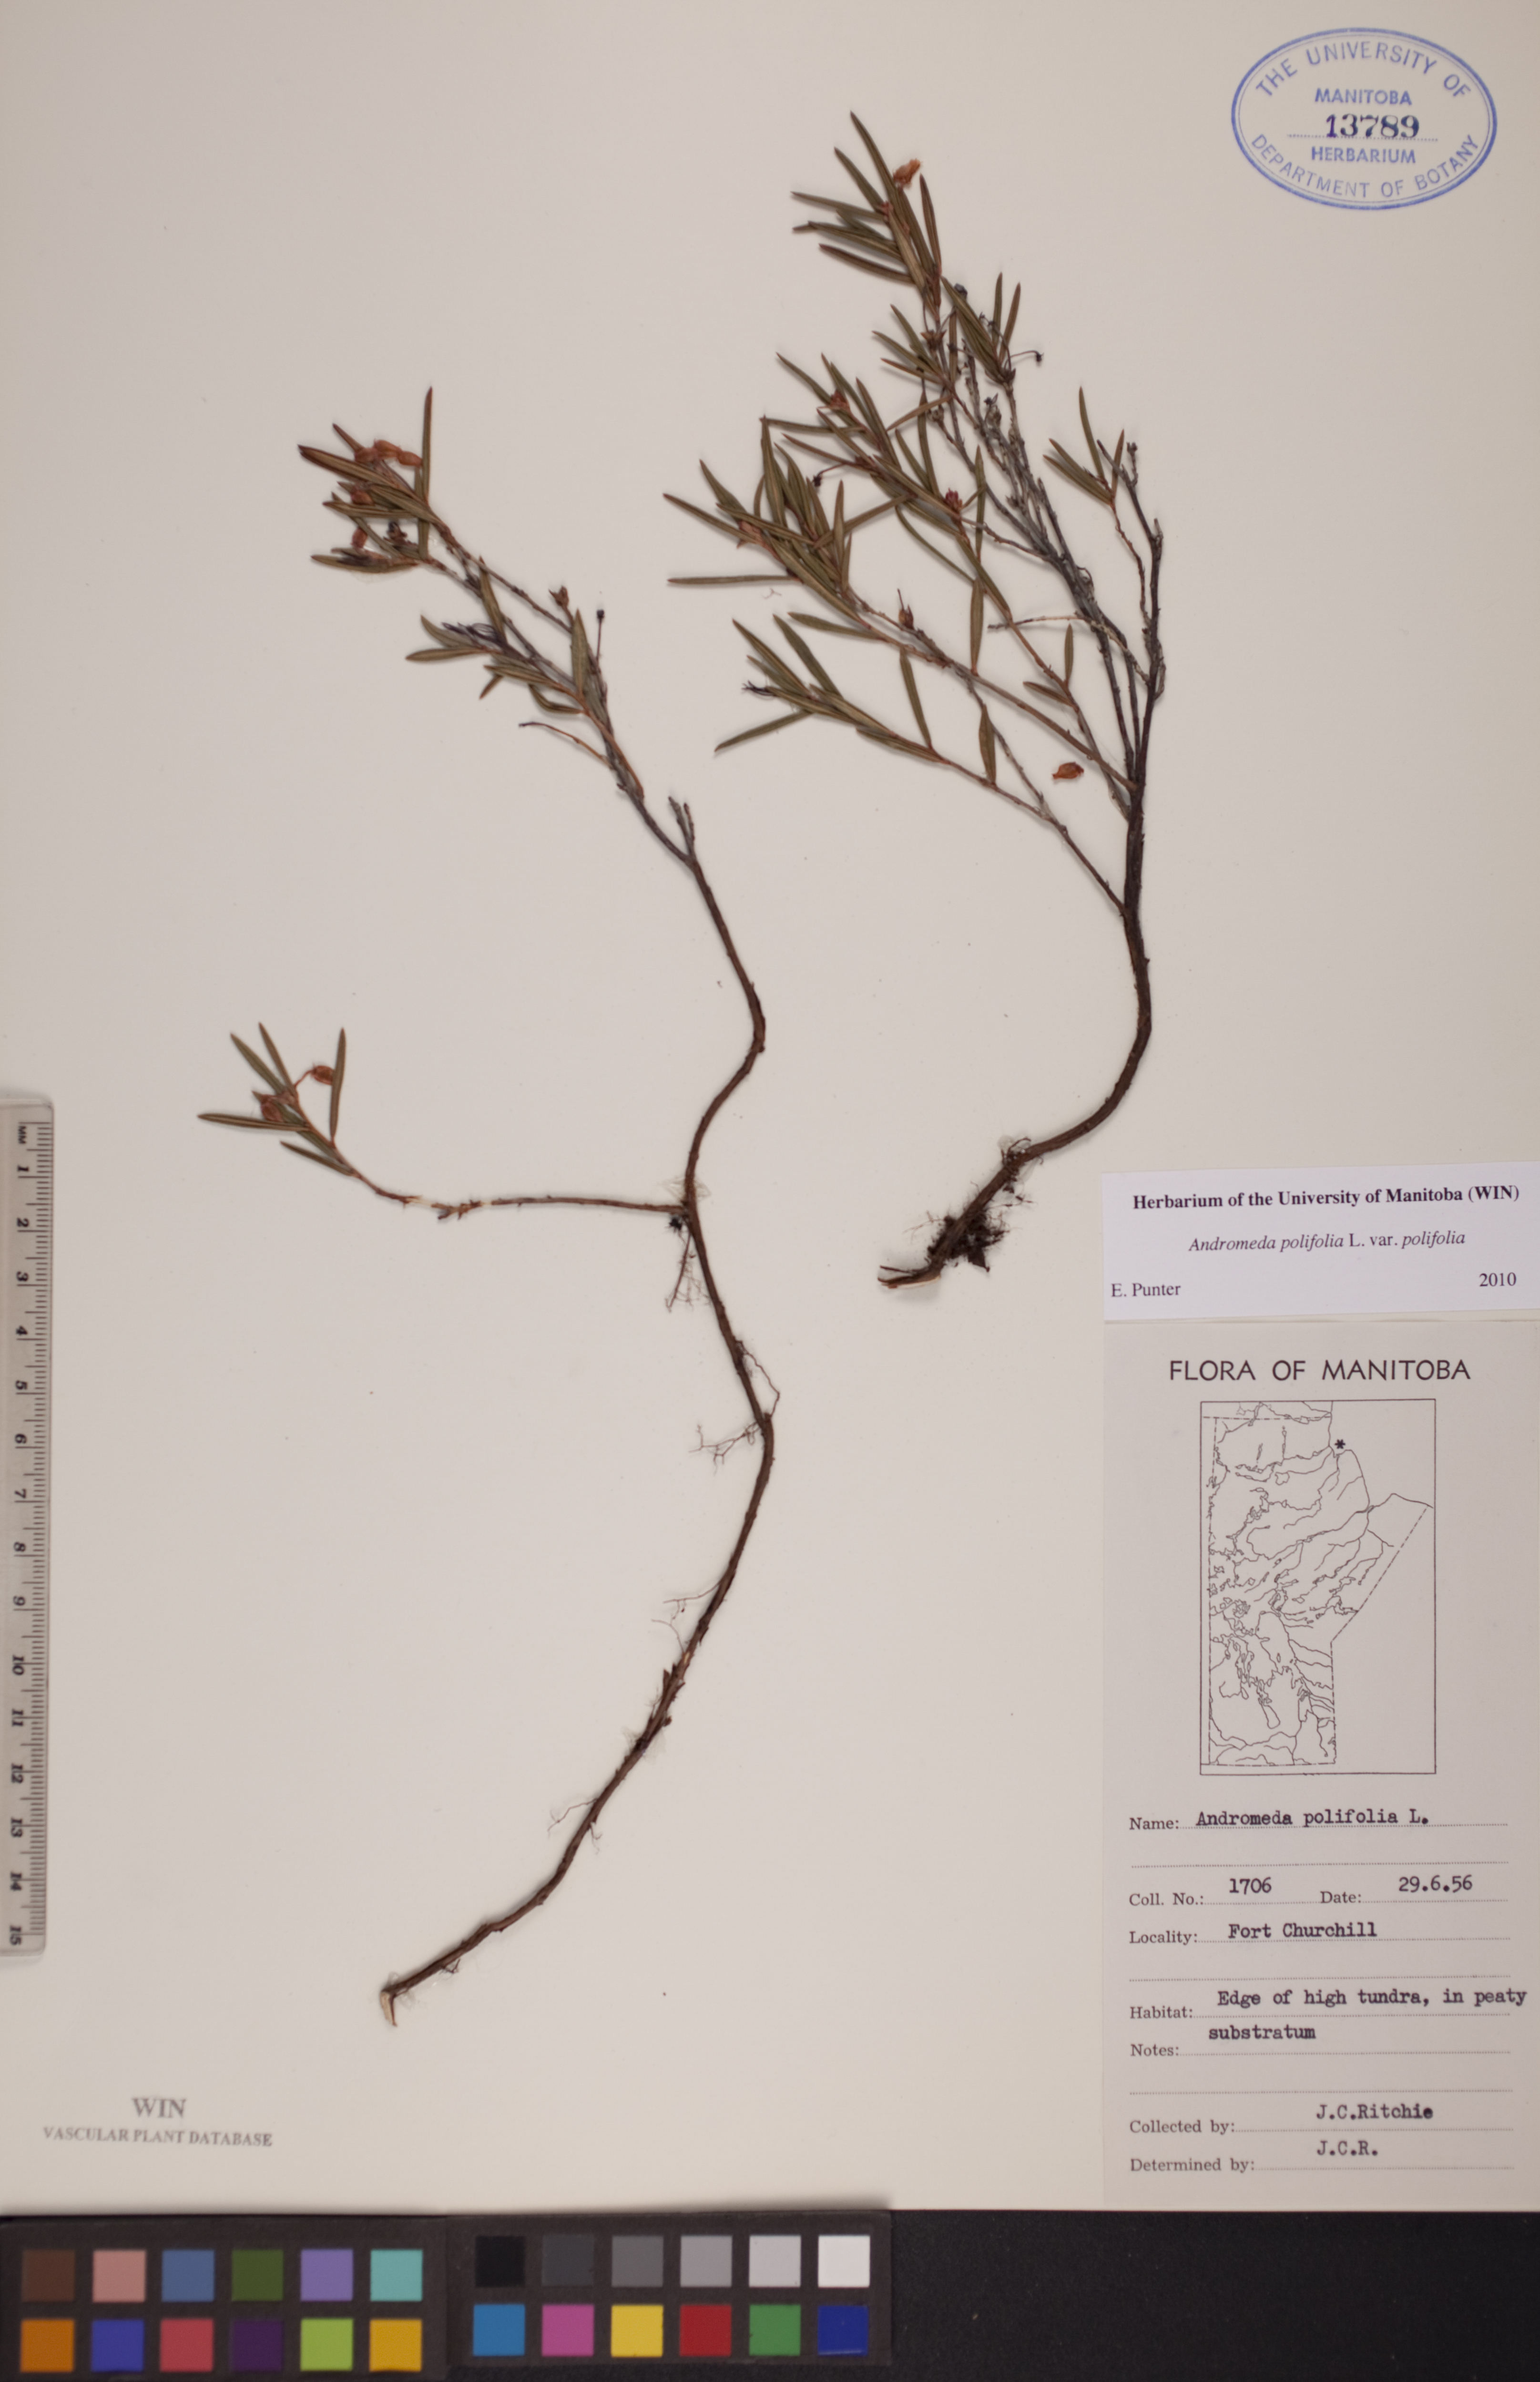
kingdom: Plantae
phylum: Tracheophyta
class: Magnoliopsida
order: Ericales
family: Ericaceae
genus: Andromeda
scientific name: Andromeda polifolia
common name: Bog-rosemary
